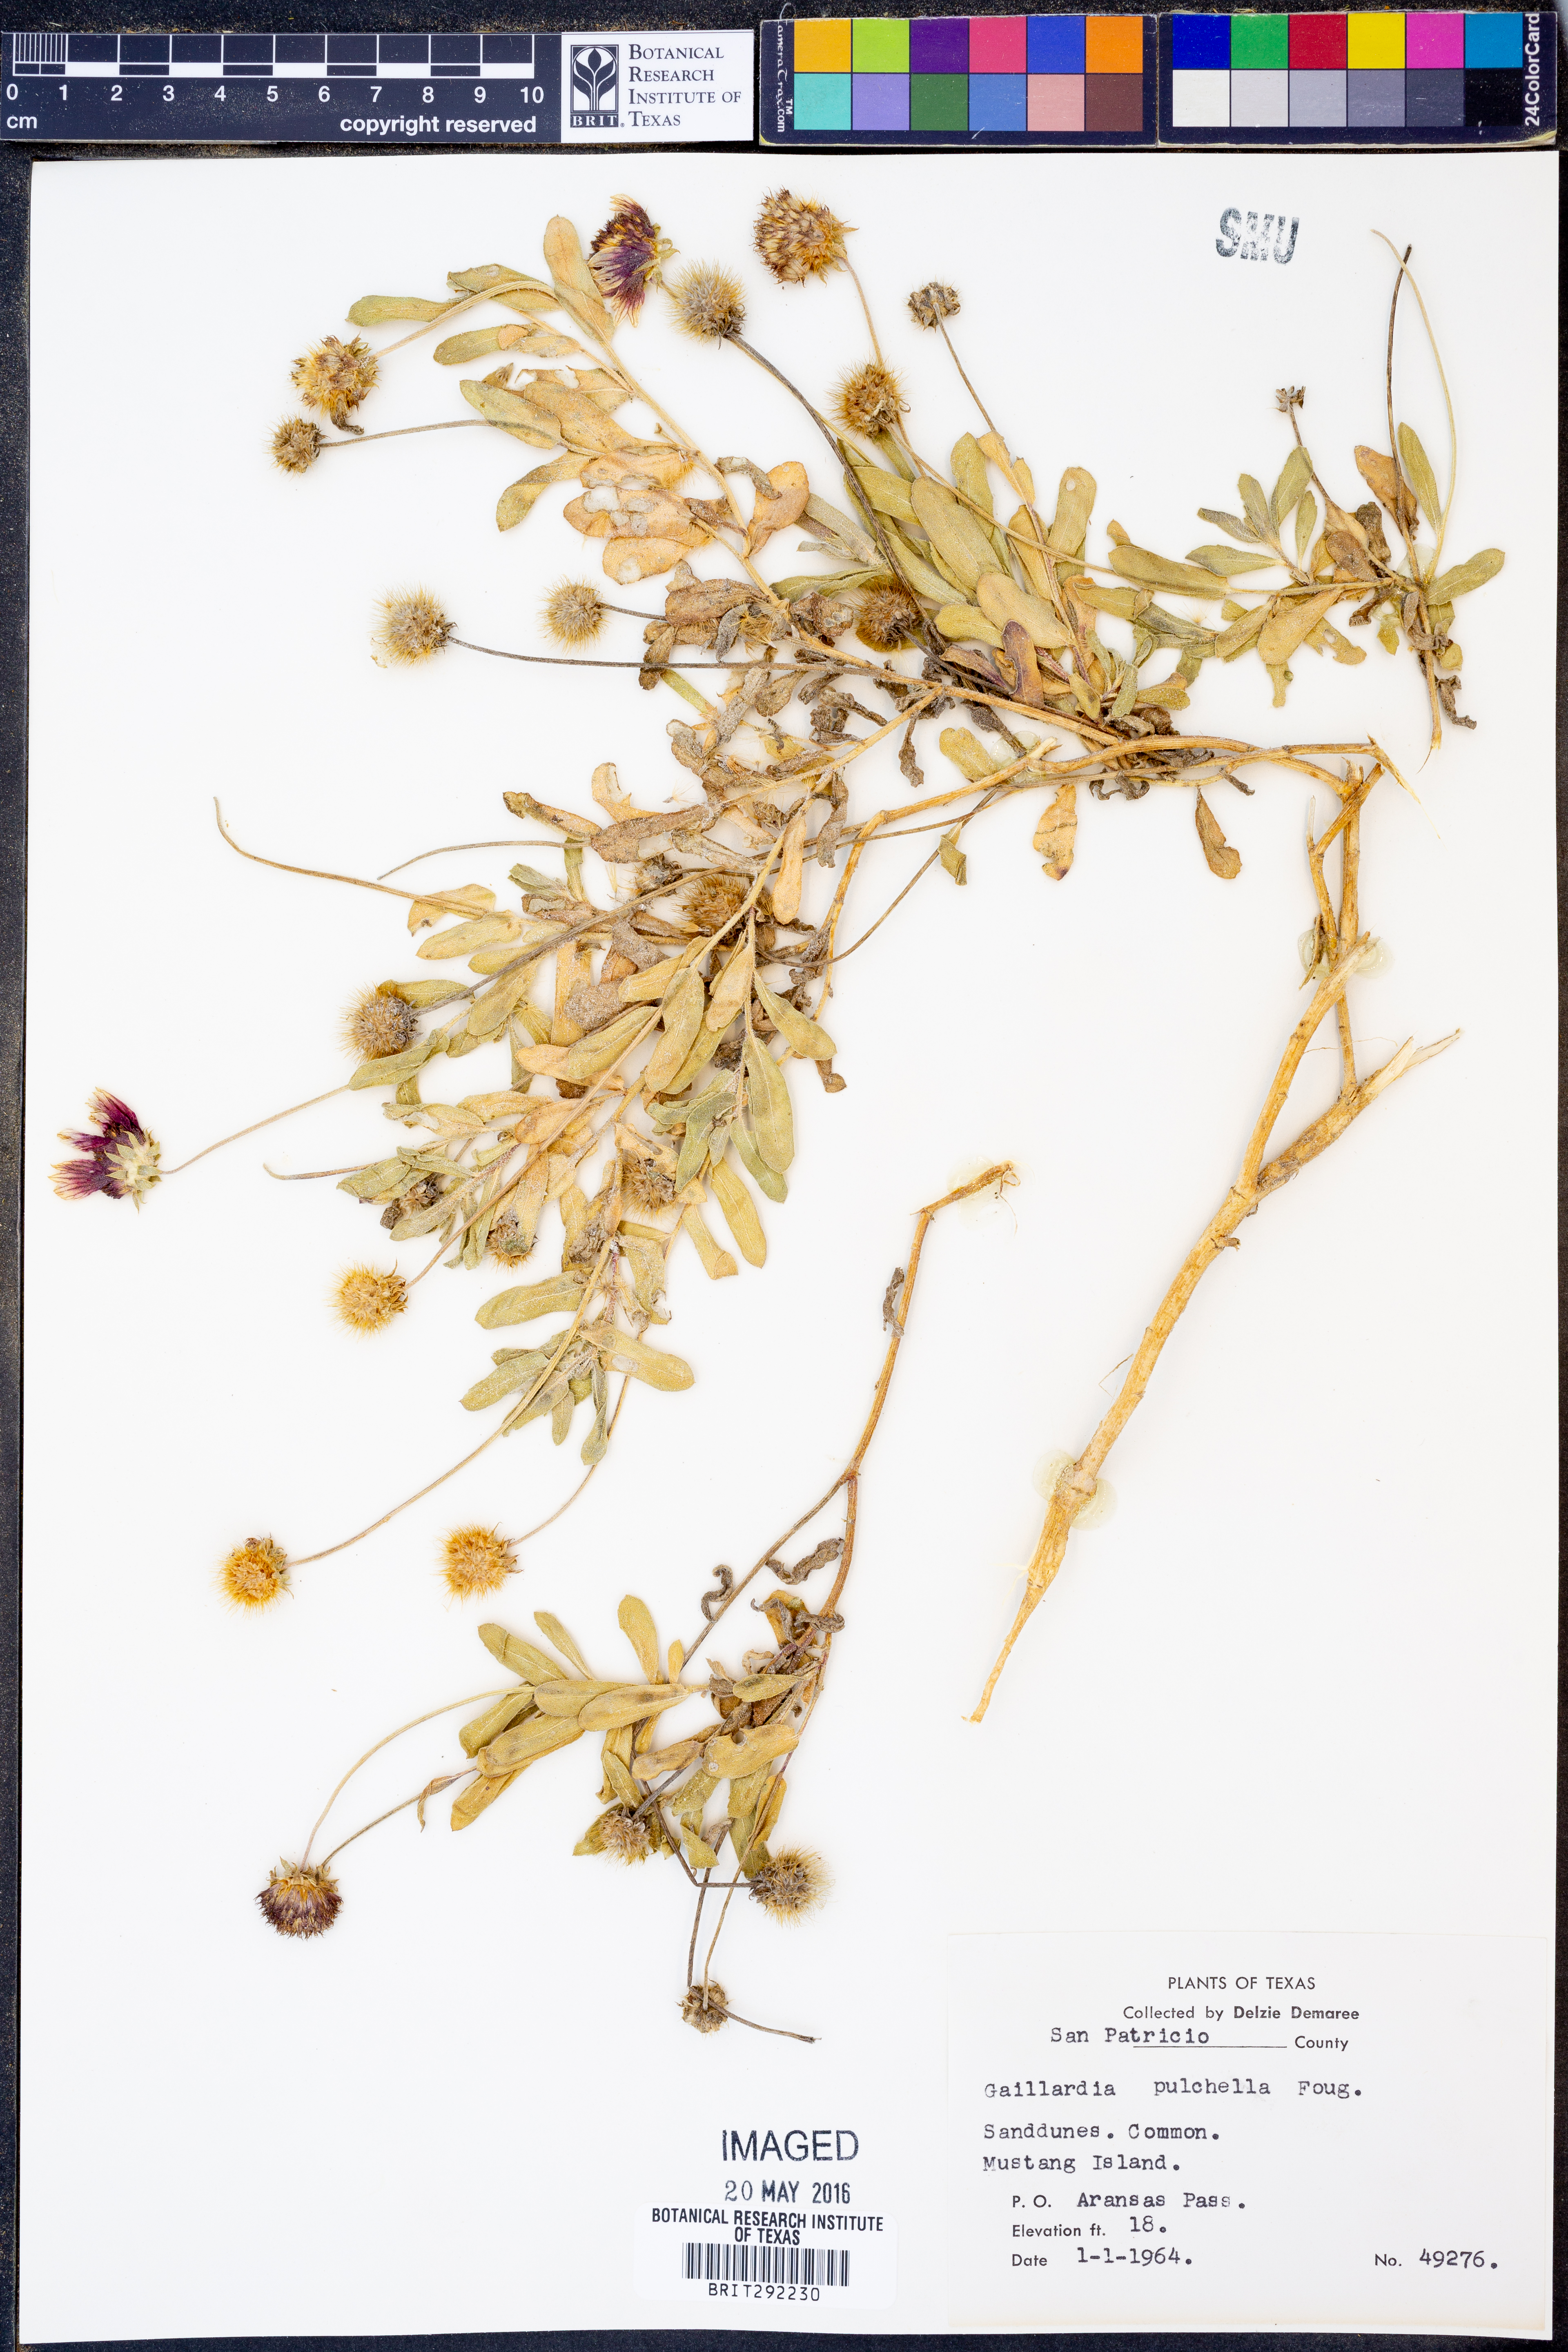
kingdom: Plantae
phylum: Tracheophyta
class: Magnoliopsida
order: Asterales
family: Asteraceae
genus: Gaillardia
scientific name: Gaillardia pulchella
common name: Firewheel
